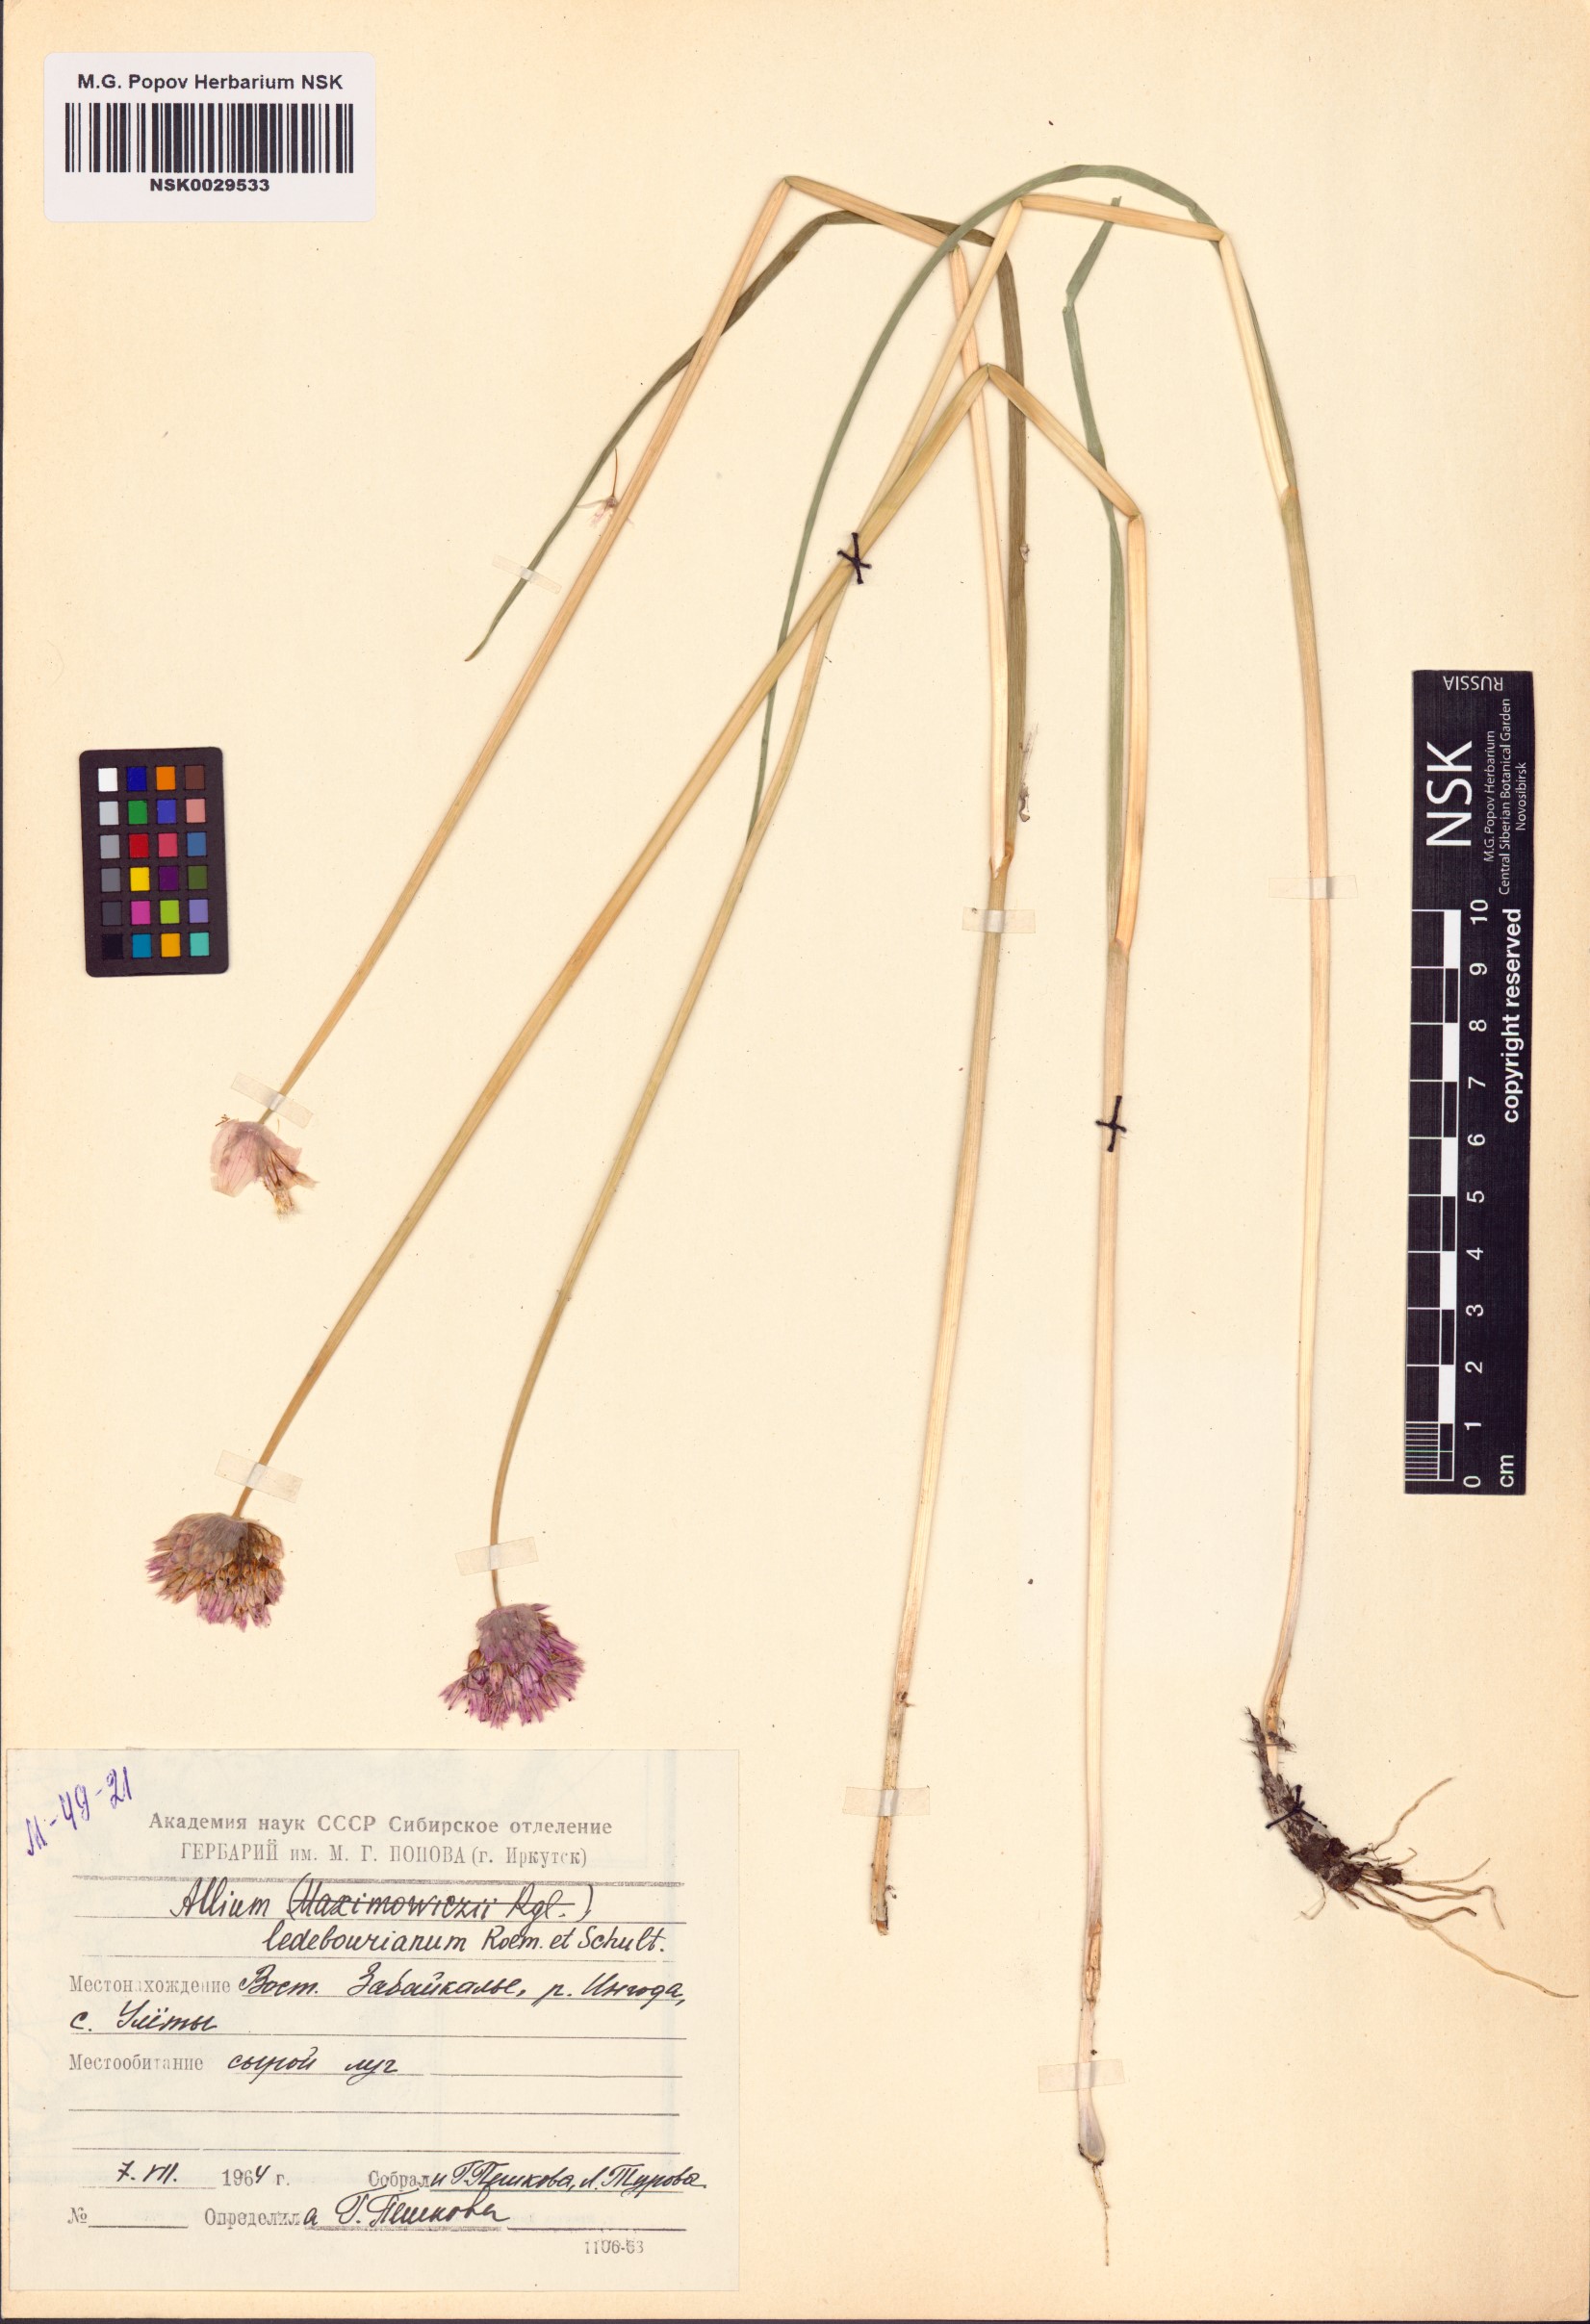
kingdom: Plantae
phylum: Tracheophyta
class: Liliopsida
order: Asparagales
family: Amaryllidaceae
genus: Allium
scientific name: Allium ledebourianum
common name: Ledebour chive
